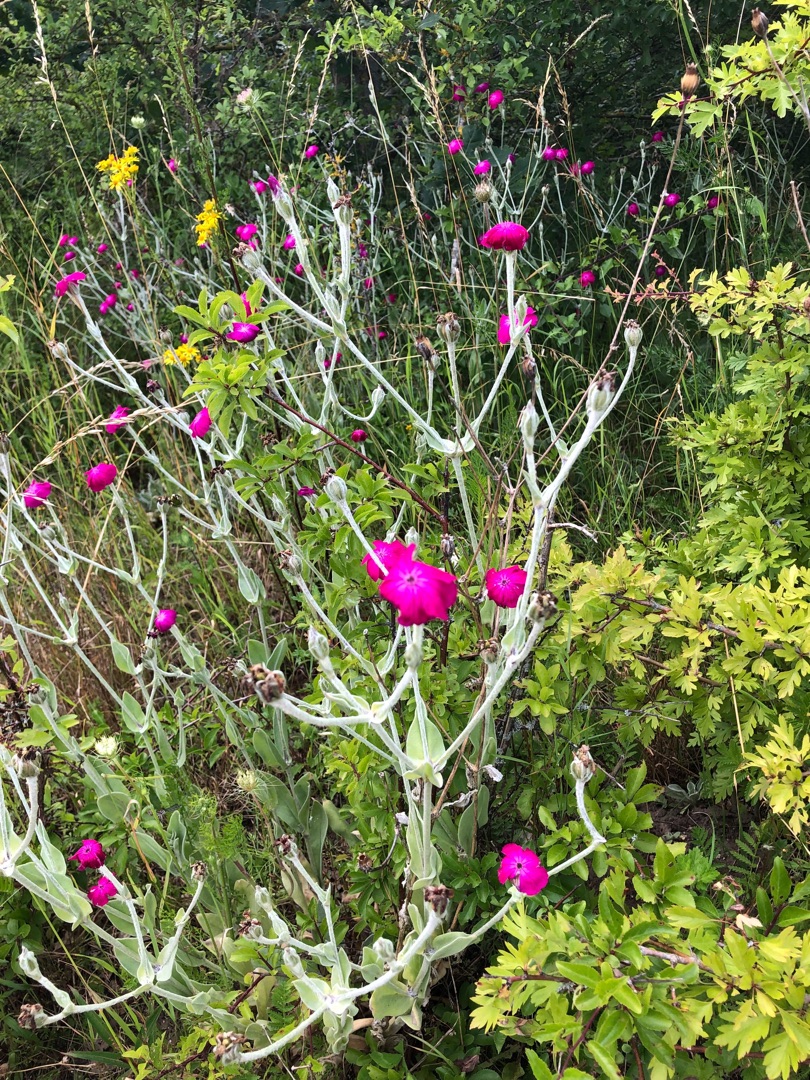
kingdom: Plantae
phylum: Tracheophyta
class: Magnoliopsida
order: Caryophyllales
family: Caryophyllaceae
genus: Silene
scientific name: Silene coronaria
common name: Fiksernellike
